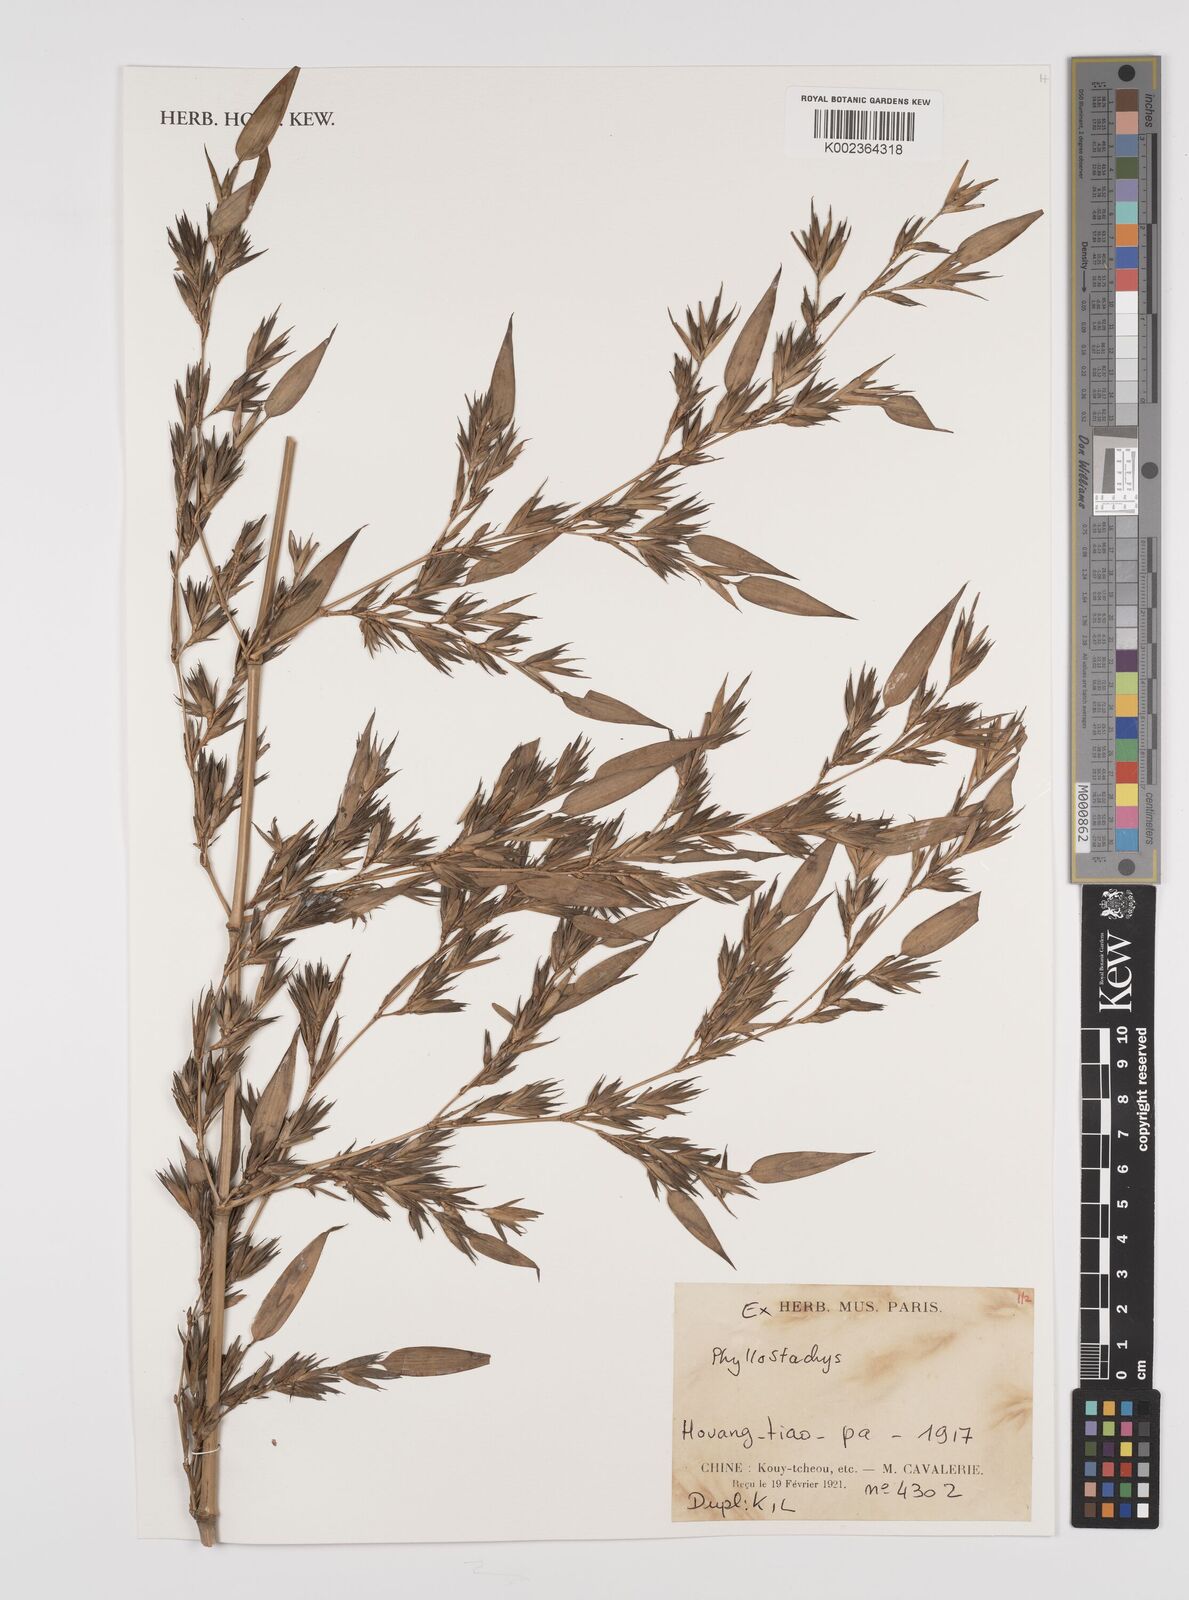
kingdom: Plantae
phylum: Tracheophyta
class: Liliopsida
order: Poales
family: Poaceae
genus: Phyllostachys
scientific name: Phyllostachys
